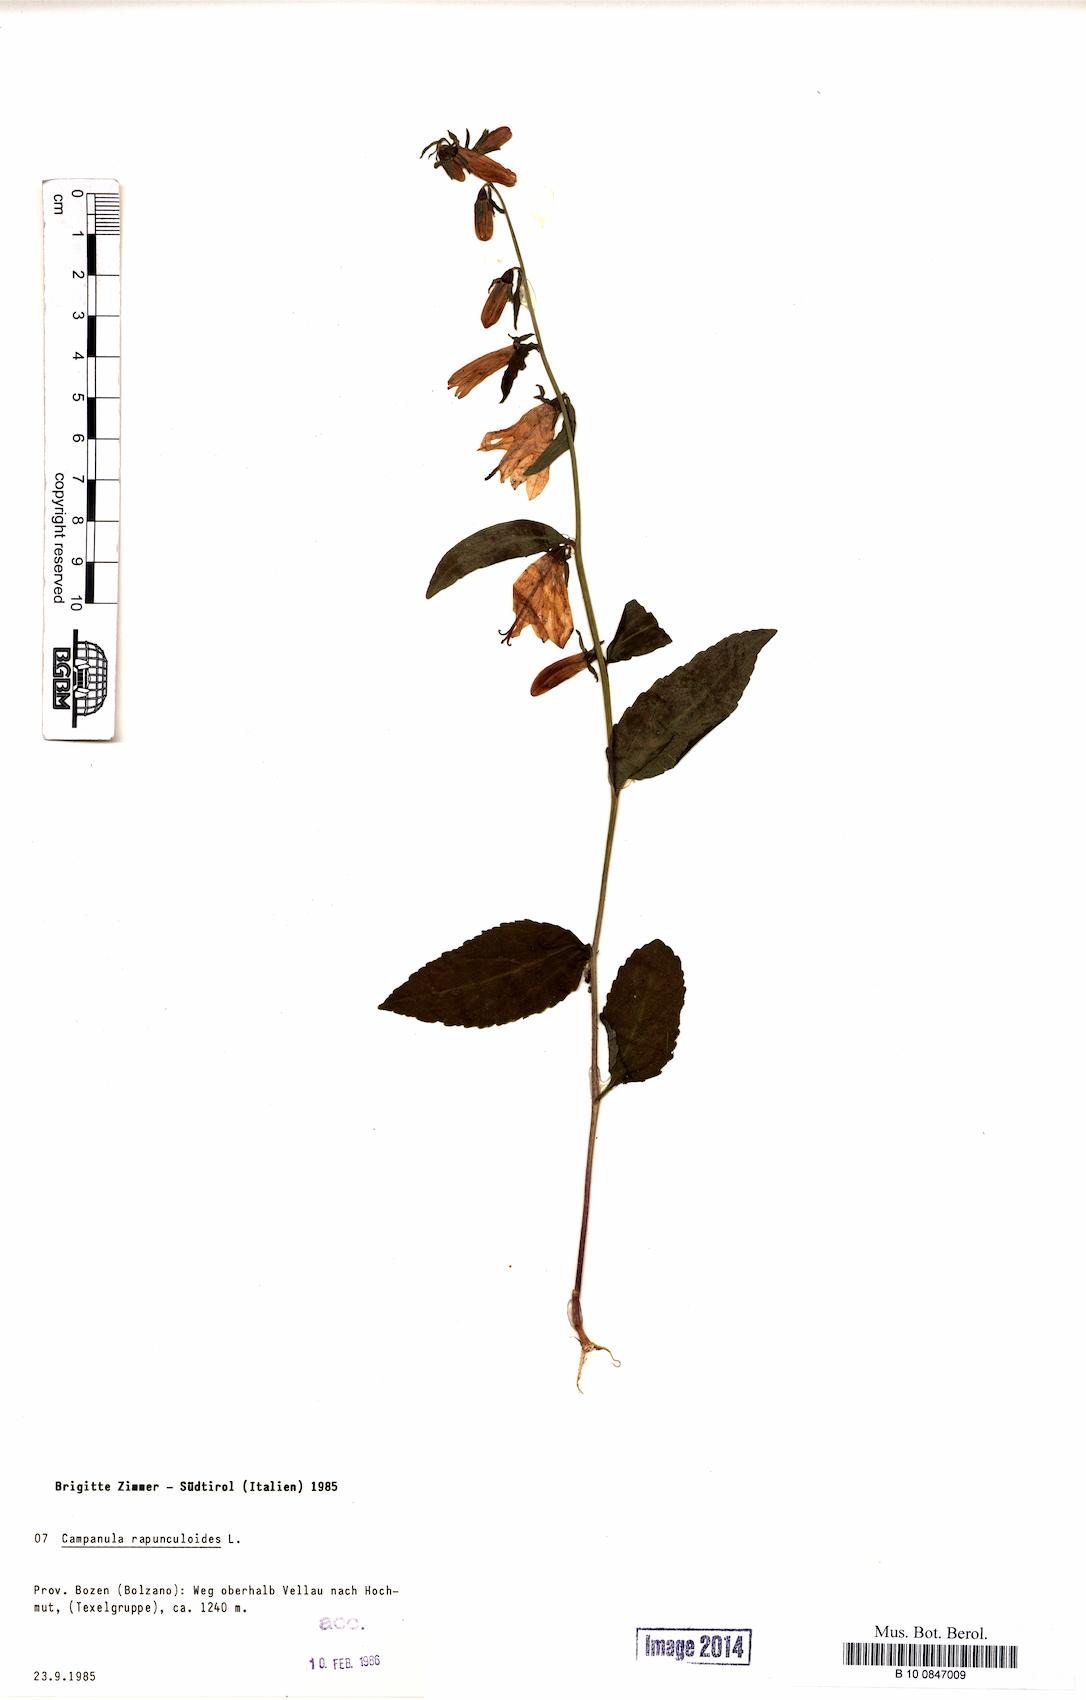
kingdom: Plantae
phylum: Tracheophyta
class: Magnoliopsida
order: Asterales
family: Campanulaceae
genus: Campanula
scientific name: Campanula rapunculoides
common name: Creeping bellflower
